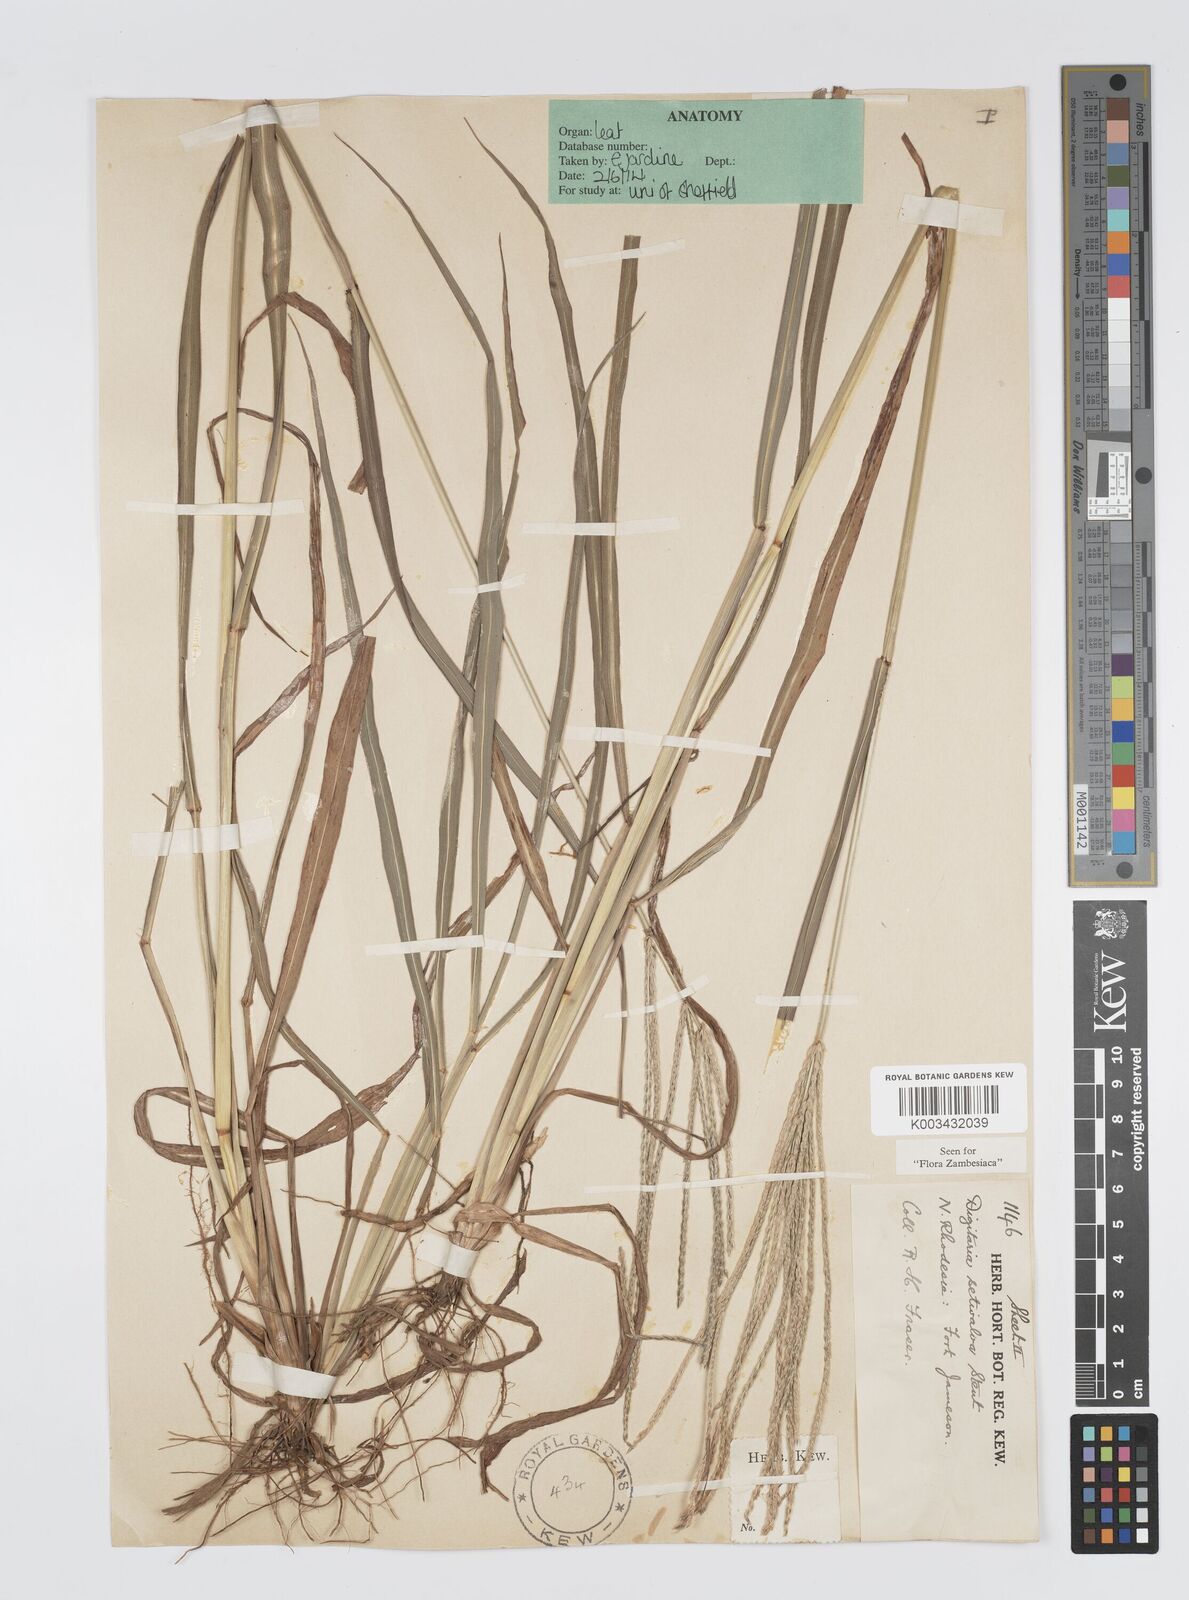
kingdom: Plantae
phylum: Tracheophyta
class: Liliopsida
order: Poales
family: Poaceae
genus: Digitaria
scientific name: Digitaria milanjiana
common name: Madagascar crabgrass
